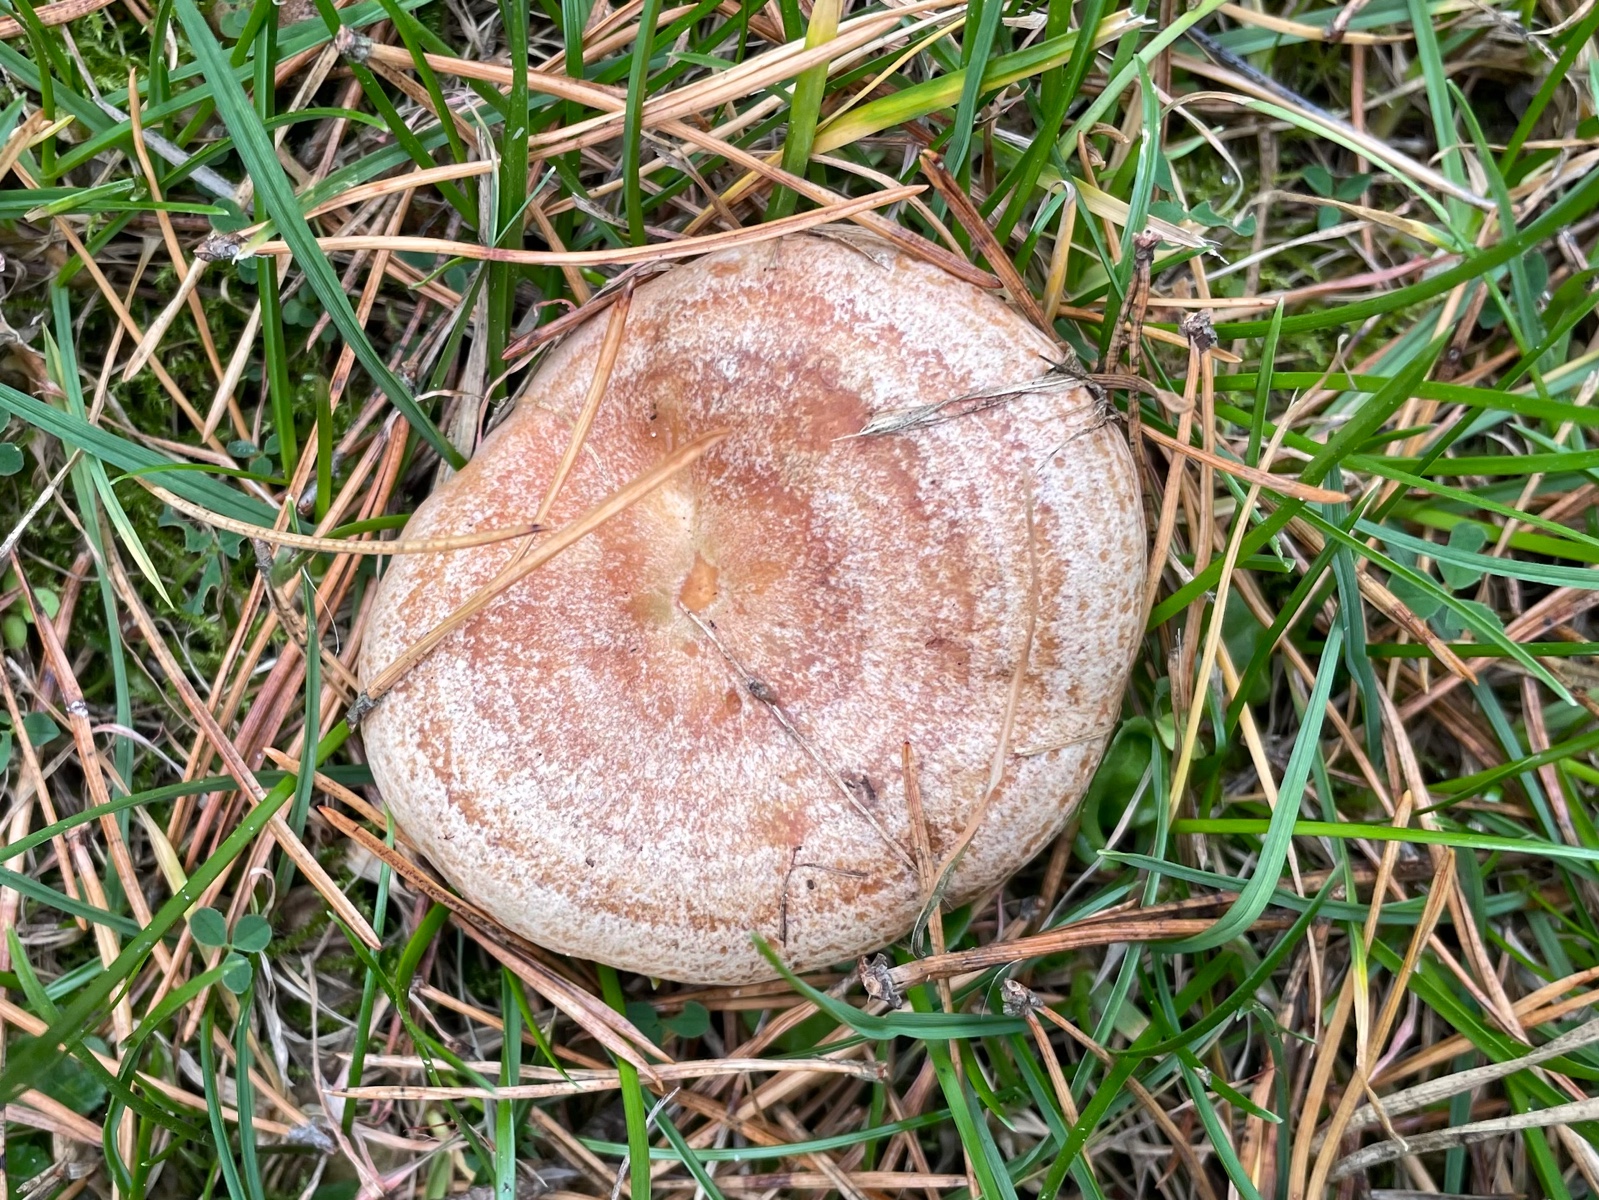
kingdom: Fungi
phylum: Basidiomycota
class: Agaricomycetes
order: Russulales
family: Russulaceae
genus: Lactarius
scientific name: Lactarius quieticolor
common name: tvefarvet mælkehat
